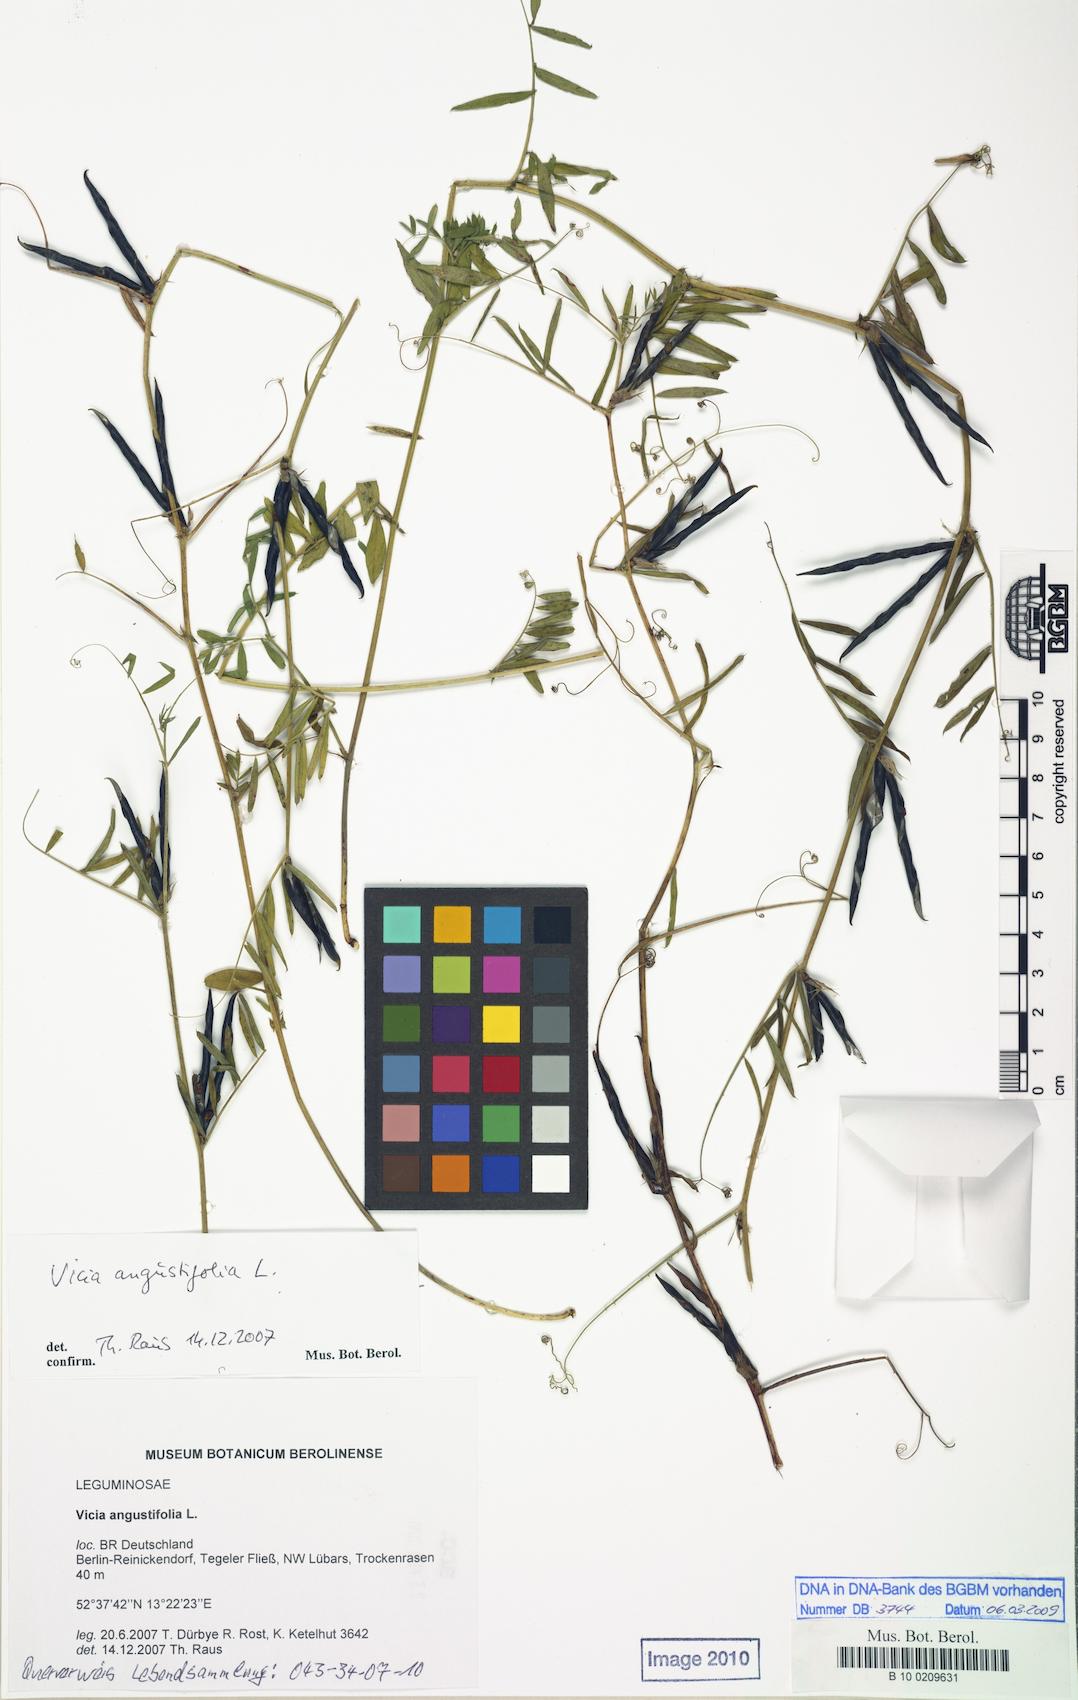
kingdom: Plantae
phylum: Tracheophyta
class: Magnoliopsida
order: Fabales
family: Fabaceae
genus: Vicia
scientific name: Vicia sativa
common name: Garden vetch
